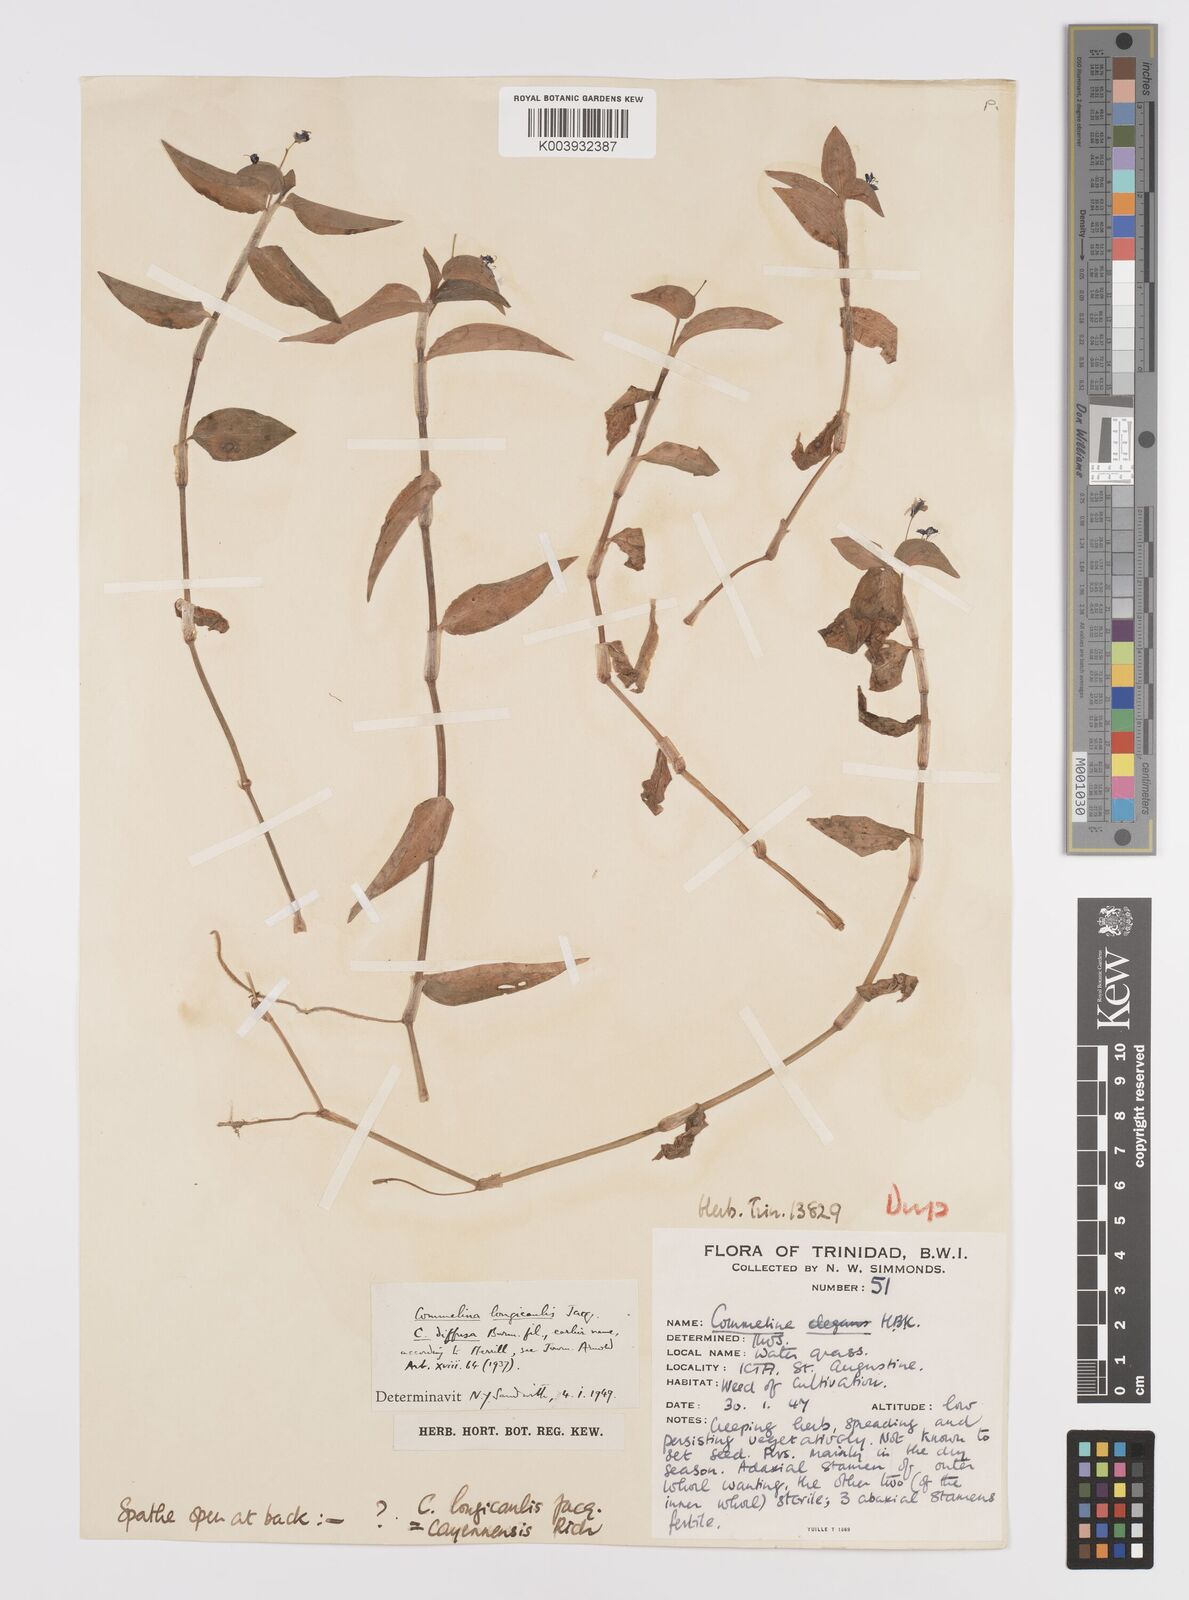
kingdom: Plantae
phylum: Tracheophyta
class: Liliopsida
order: Commelinales
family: Commelinaceae
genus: Commelina
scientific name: Commelina
